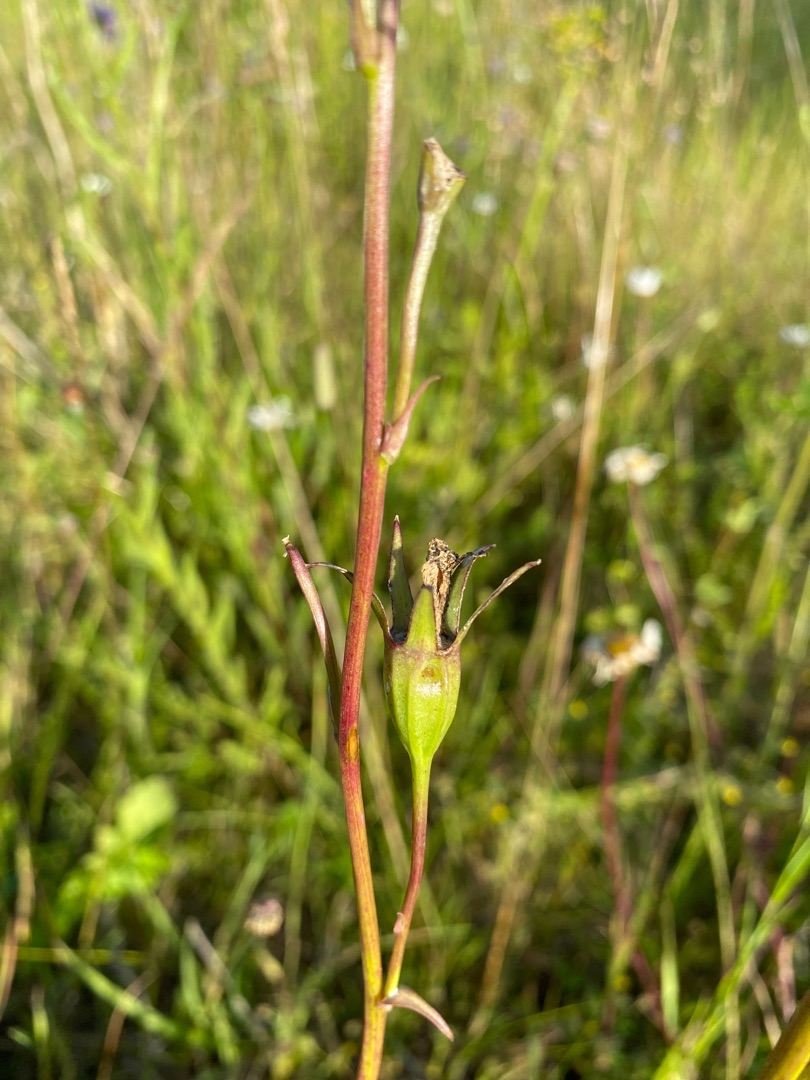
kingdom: Plantae
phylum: Tracheophyta
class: Magnoliopsida
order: Asterales
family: Campanulaceae
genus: Campanula
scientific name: Campanula persicifolia
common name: Smalbladet klokke
